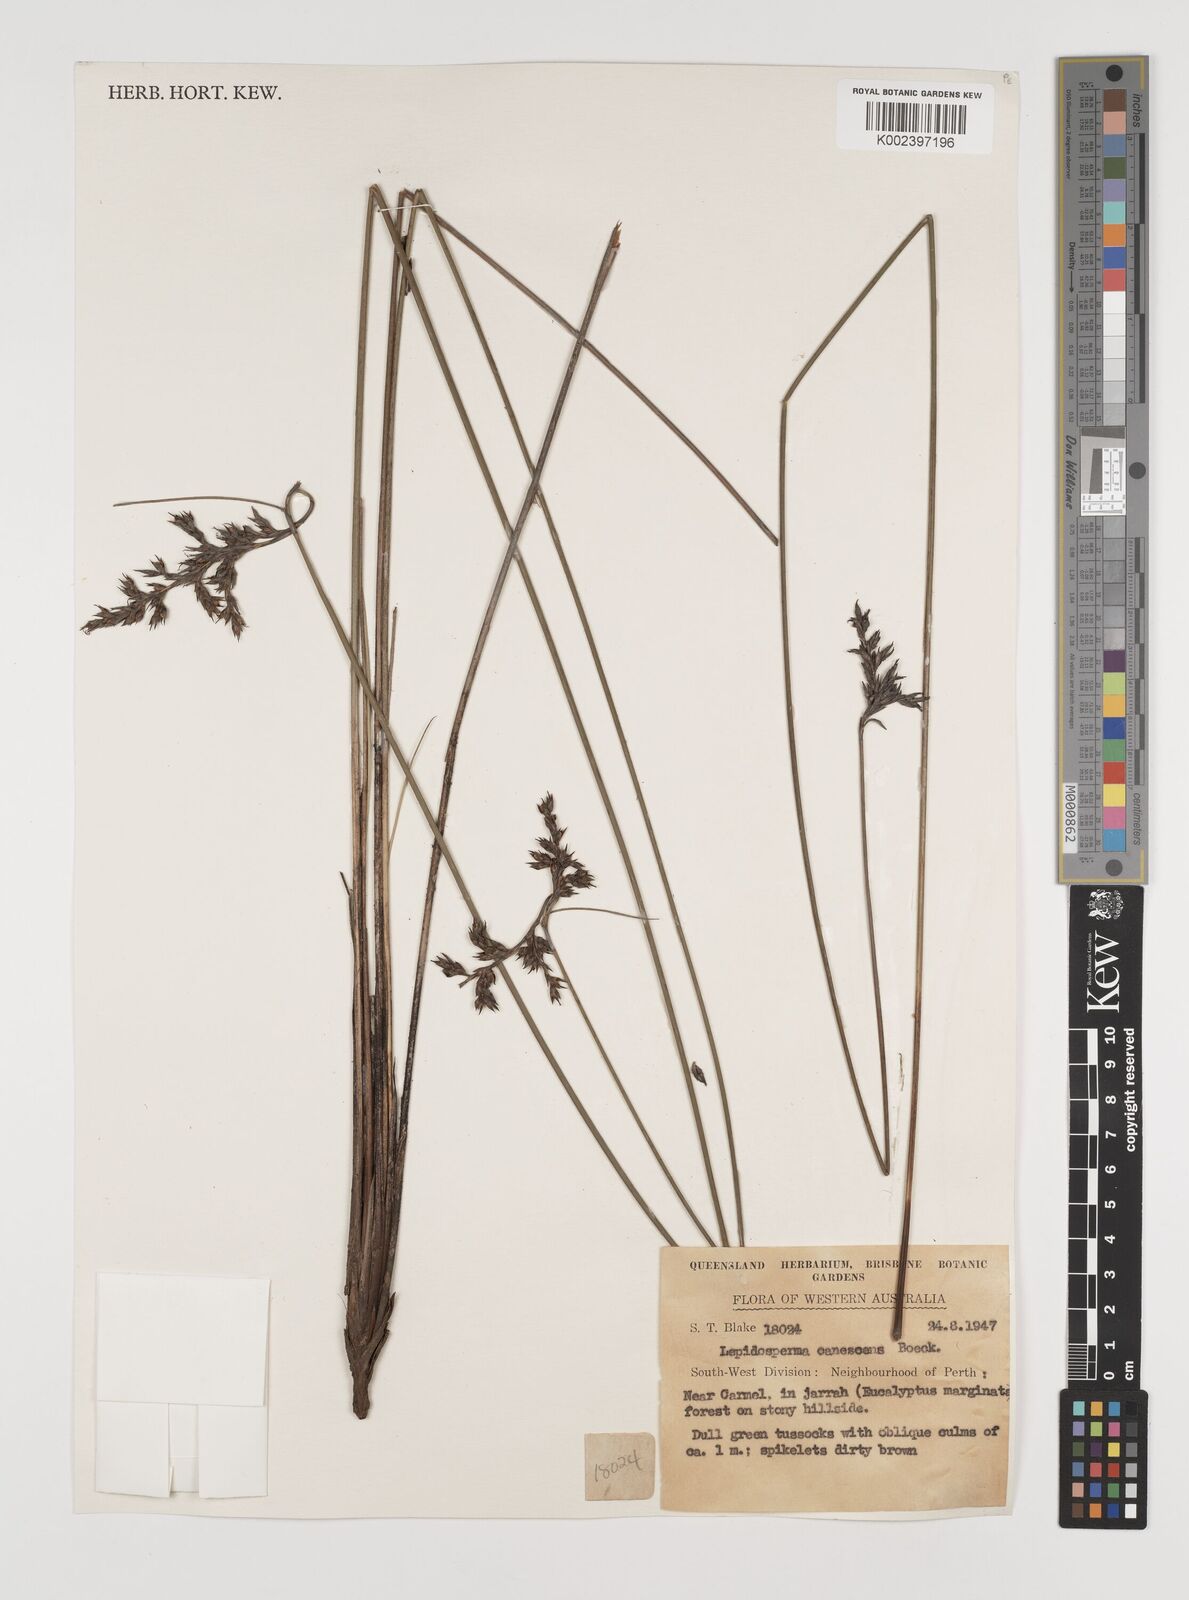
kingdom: Plantae
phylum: Tracheophyta
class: Liliopsida
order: Poales
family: Cyperaceae
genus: Lepidosperma
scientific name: Lepidosperma canescens
